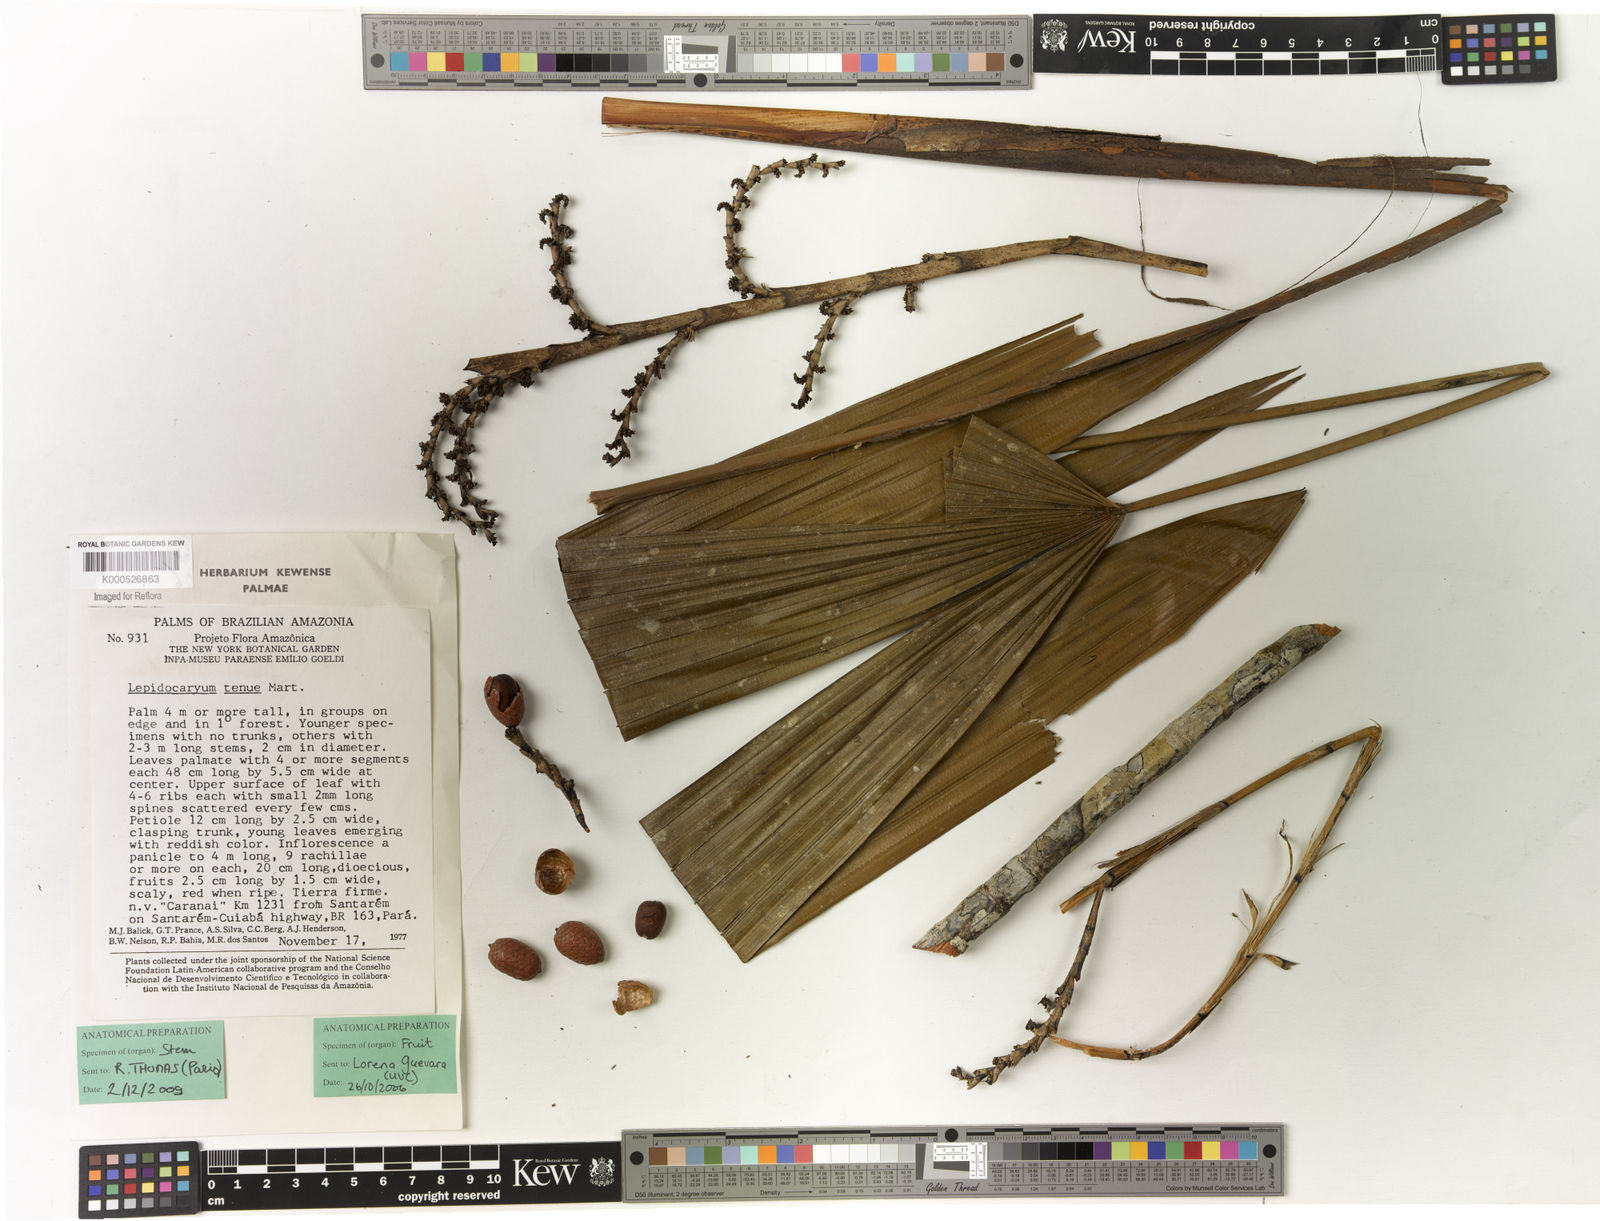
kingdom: Plantae
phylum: Tracheophyta
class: Liliopsida
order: Arecales
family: Arecaceae
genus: Lepidocaryum
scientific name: Lepidocaryum tenue
